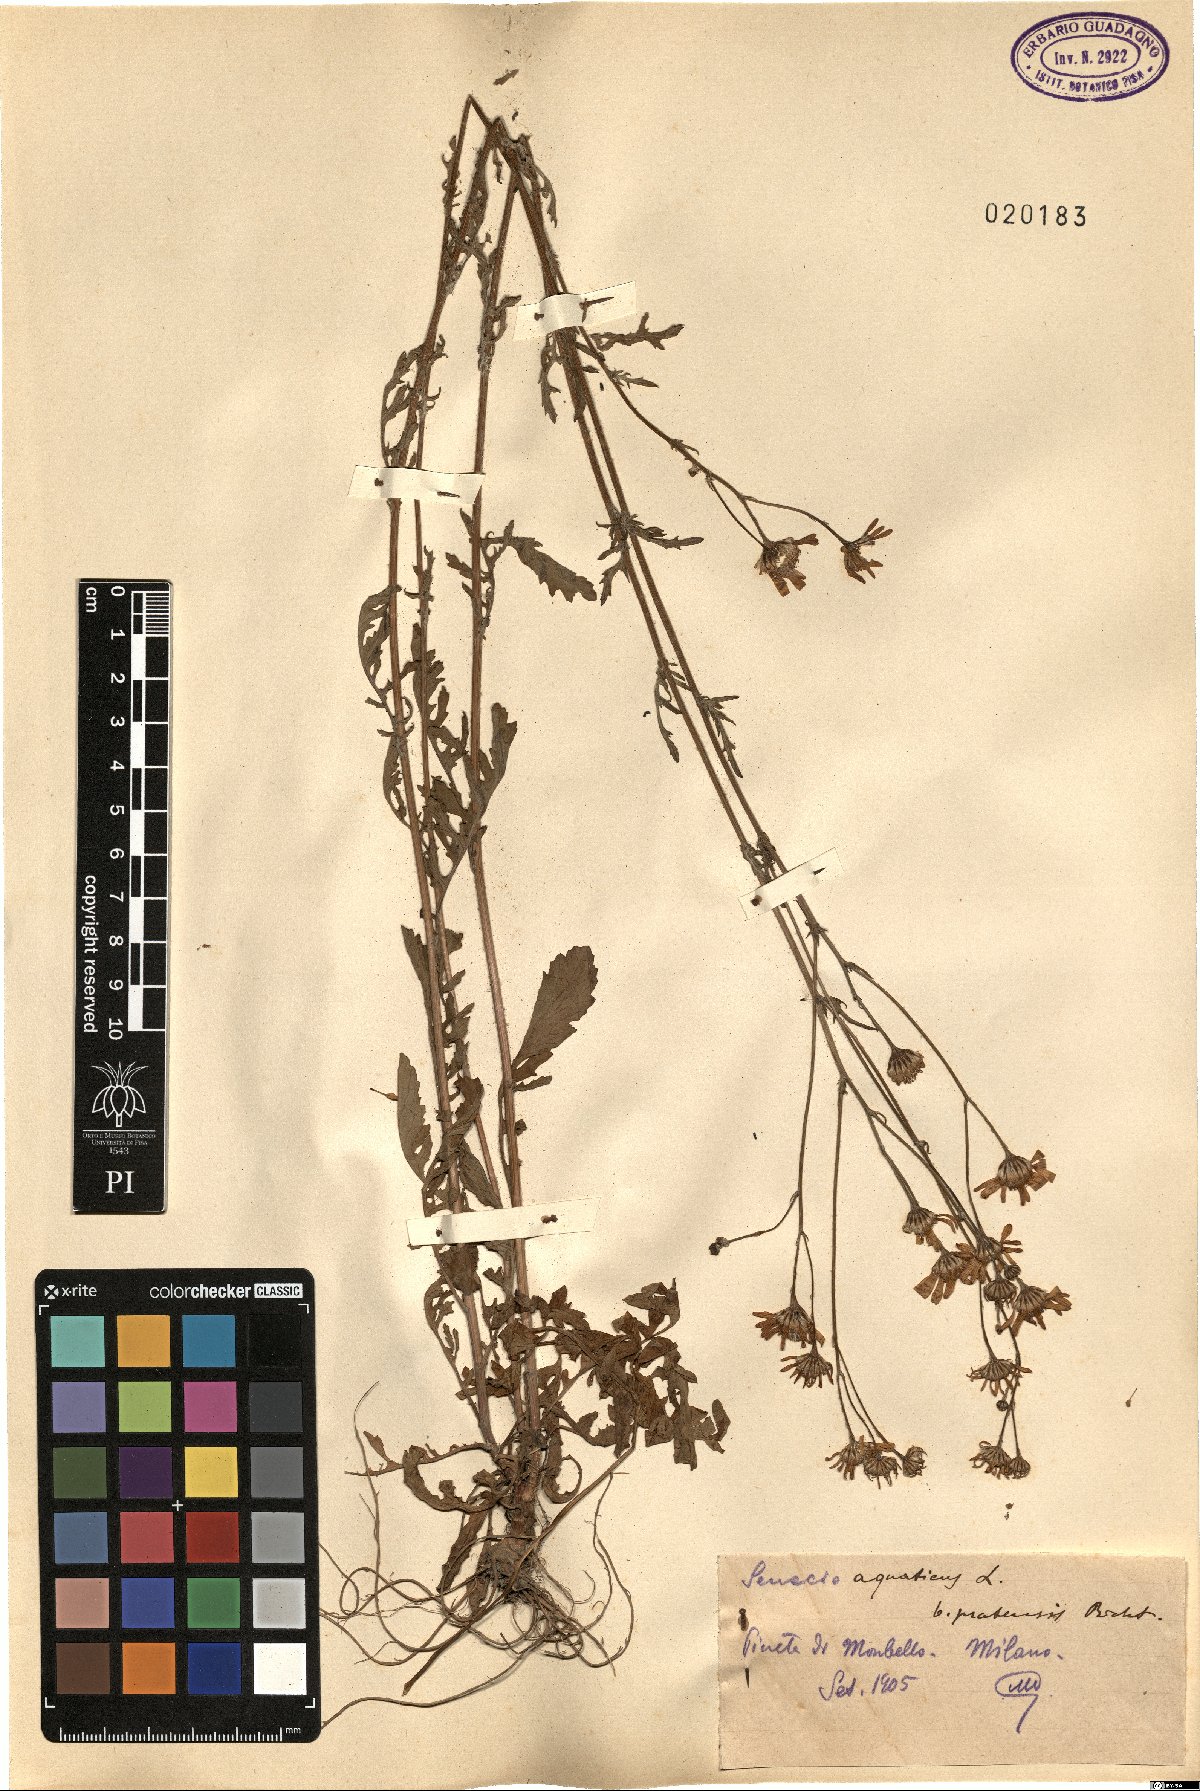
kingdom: Plantae
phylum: Tracheophyta
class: Magnoliopsida
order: Asterales
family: Asteraceae
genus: Jacobaea
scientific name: Jacobaea aquatica
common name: Water ragwort
